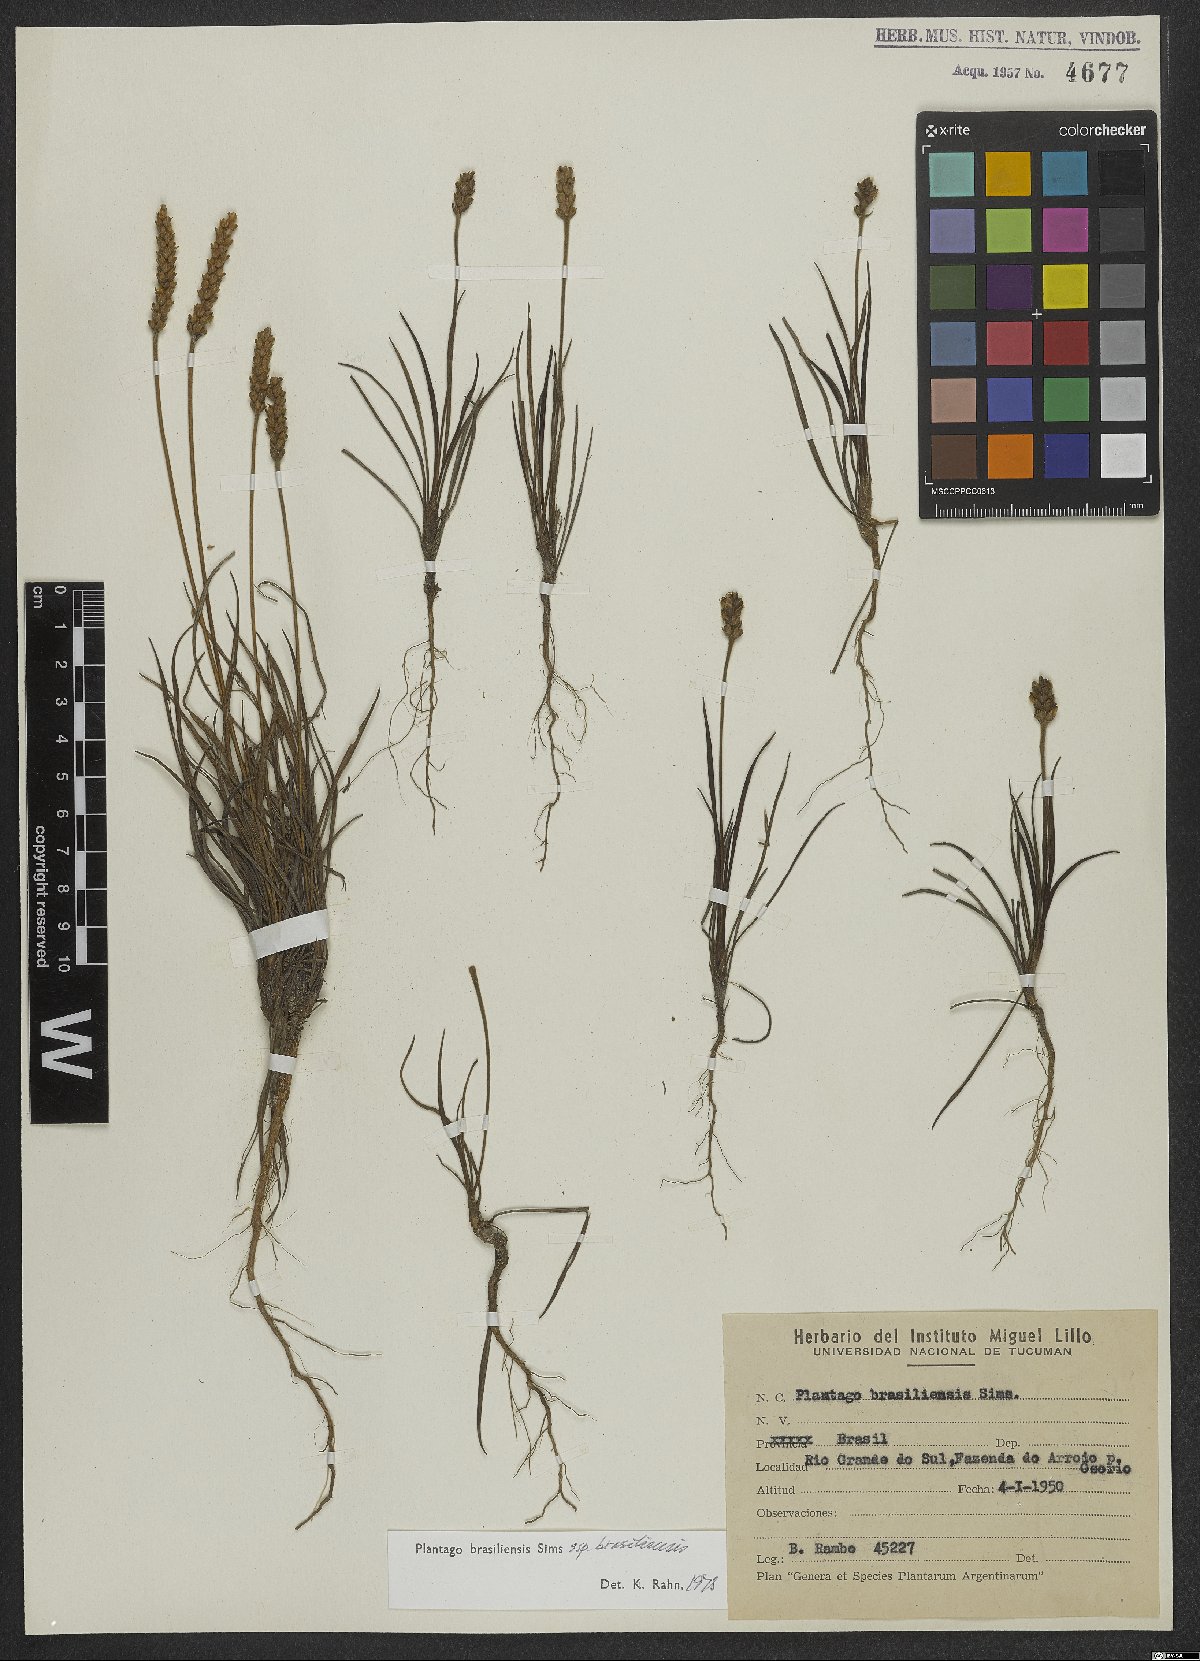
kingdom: Plantae
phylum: Tracheophyta
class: Magnoliopsida
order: Lamiales
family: Plantaginaceae
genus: Plantago
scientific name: Plantago brasiliensis
